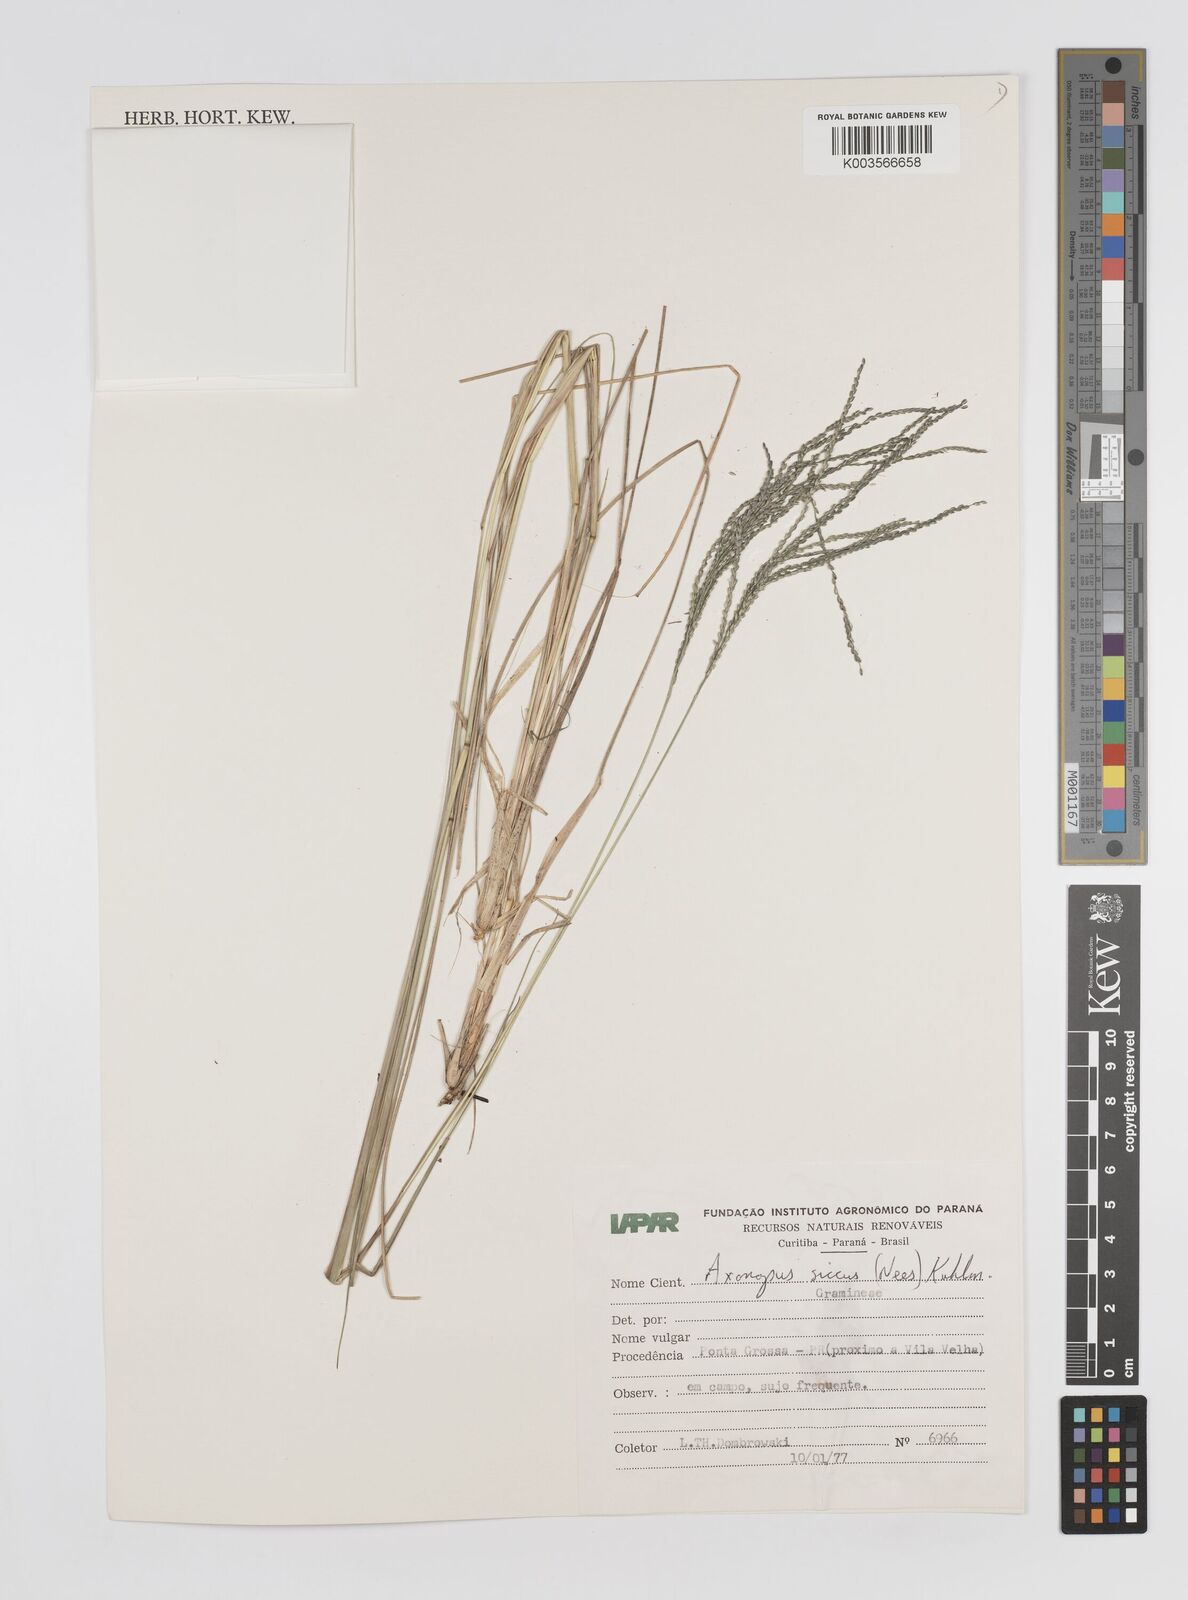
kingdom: Plantae
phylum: Tracheophyta
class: Liliopsida
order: Poales
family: Poaceae
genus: Axonopus
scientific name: Axonopus siccus
